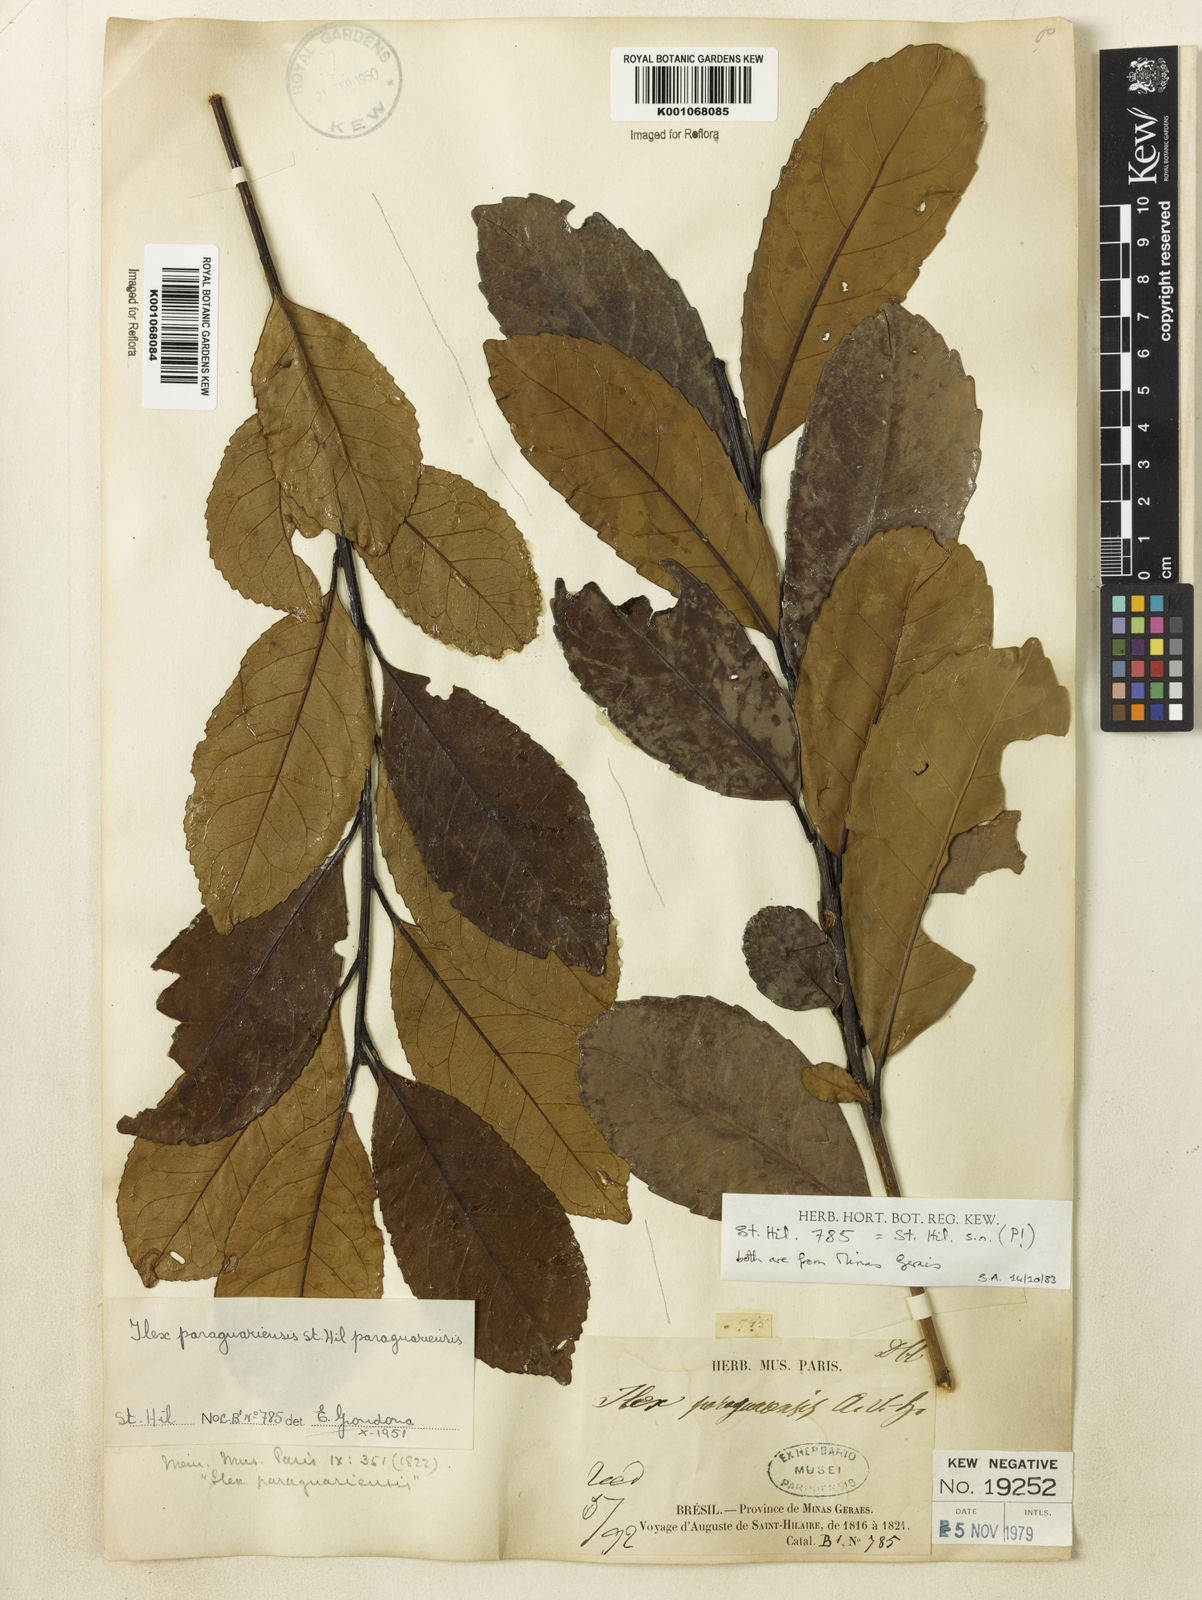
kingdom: Plantae
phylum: Tracheophyta
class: Magnoliopsida
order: Aquifoliales
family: Aquifoliaceae
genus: Ilex
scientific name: Ilex paraguariensis
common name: Paraguay tea
